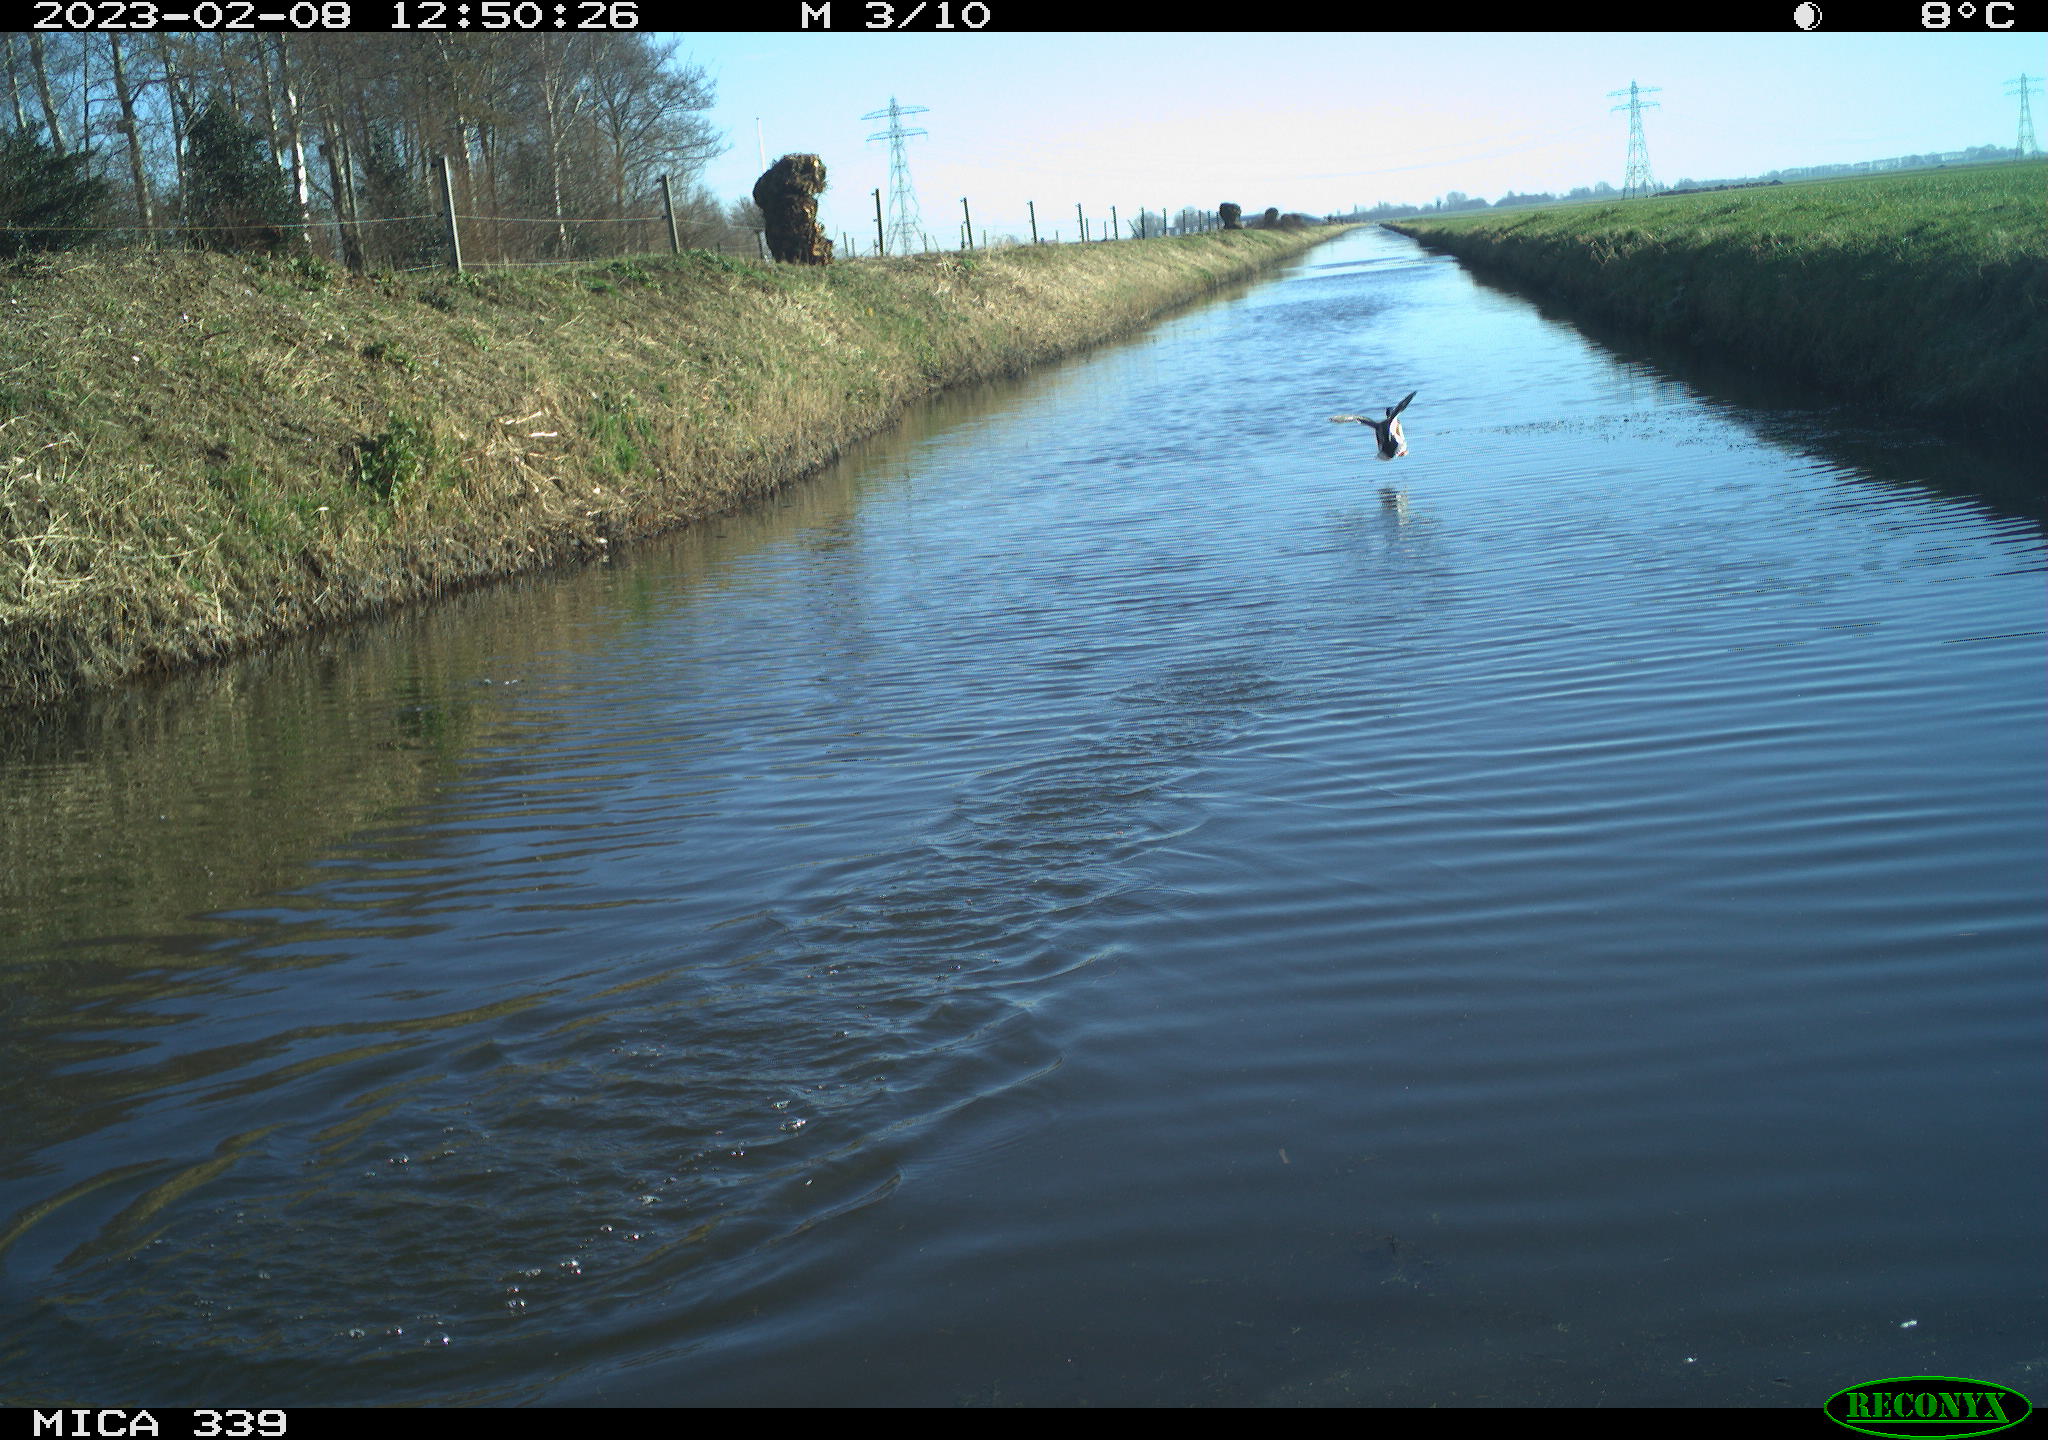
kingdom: Animalia
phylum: Chordata
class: Aves
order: Anseriformes
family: Anatidae
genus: Anas
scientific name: Anas
